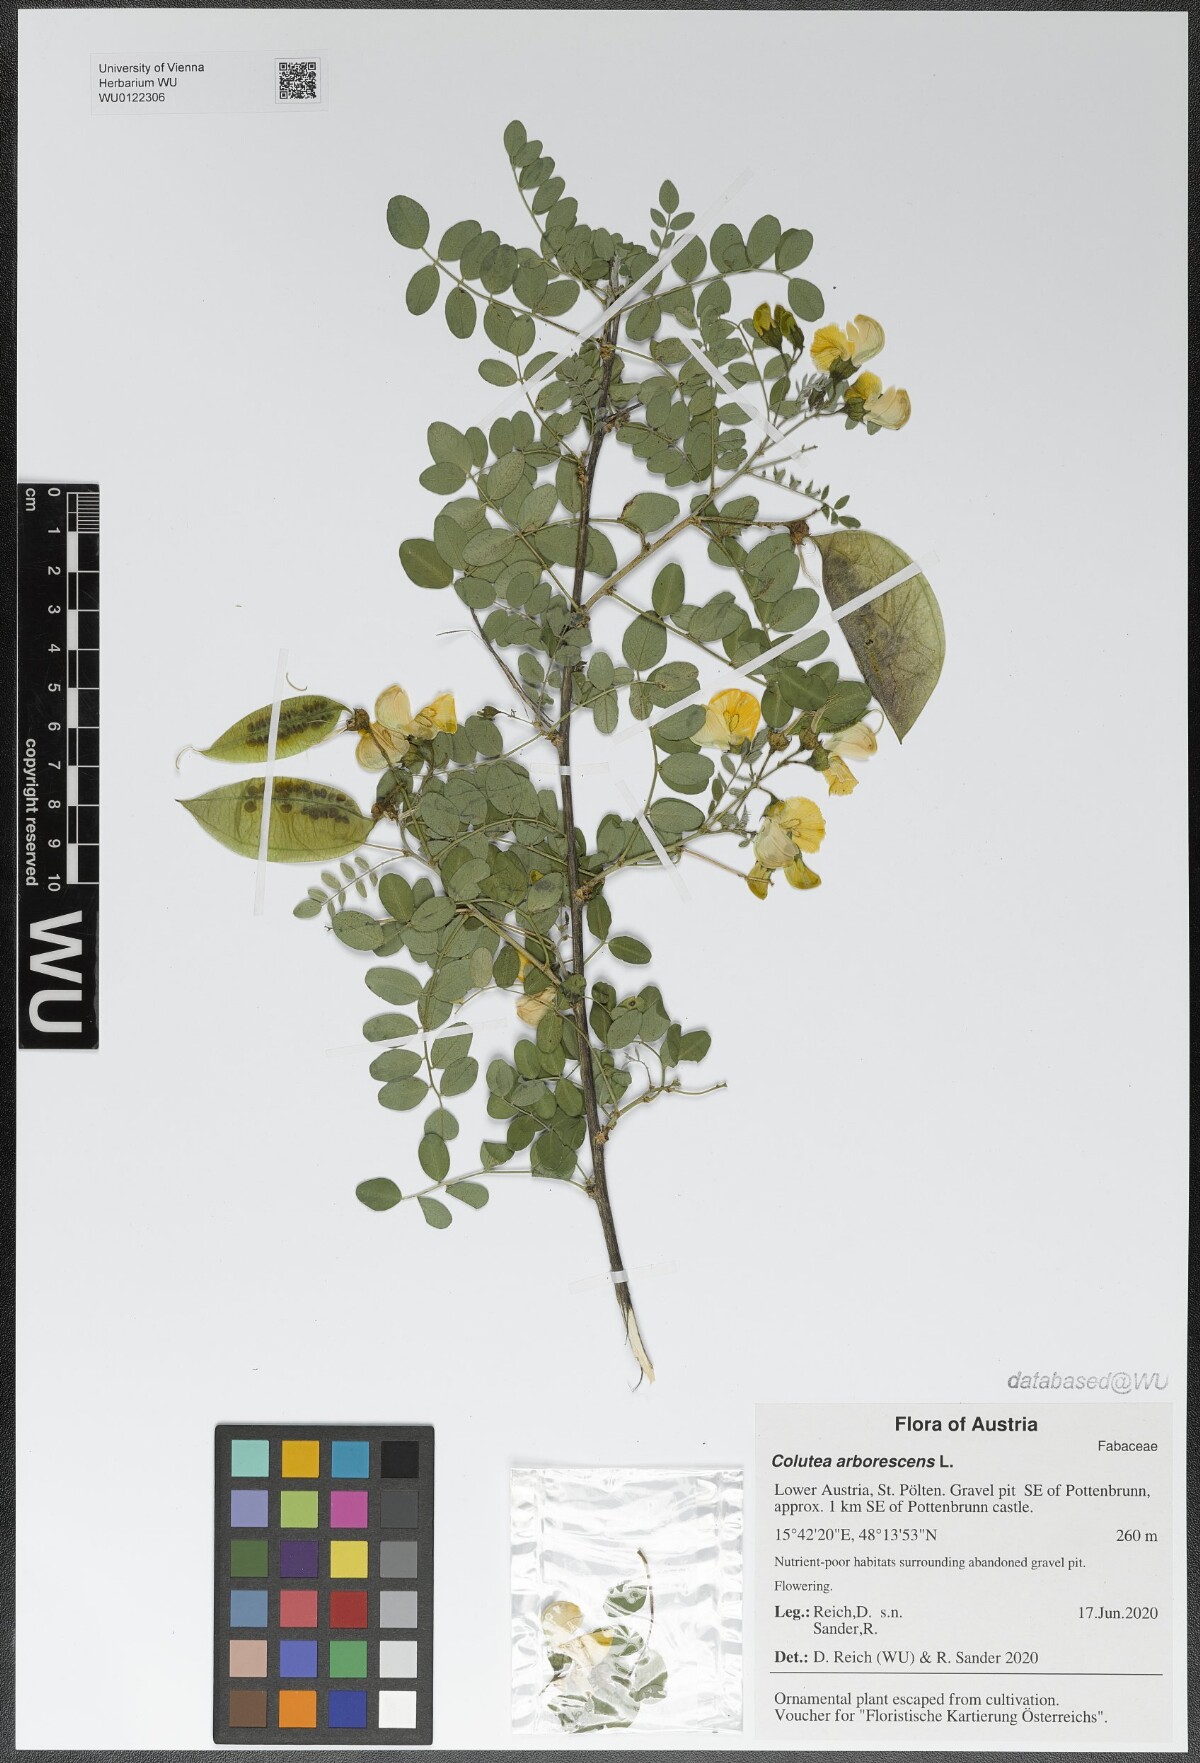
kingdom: Plantae
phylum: Tracheophyta
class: Magnoliopsida
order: Fabales
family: Fabaceae
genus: Colutea
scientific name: Colutea arborescens
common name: Bladder-senna
